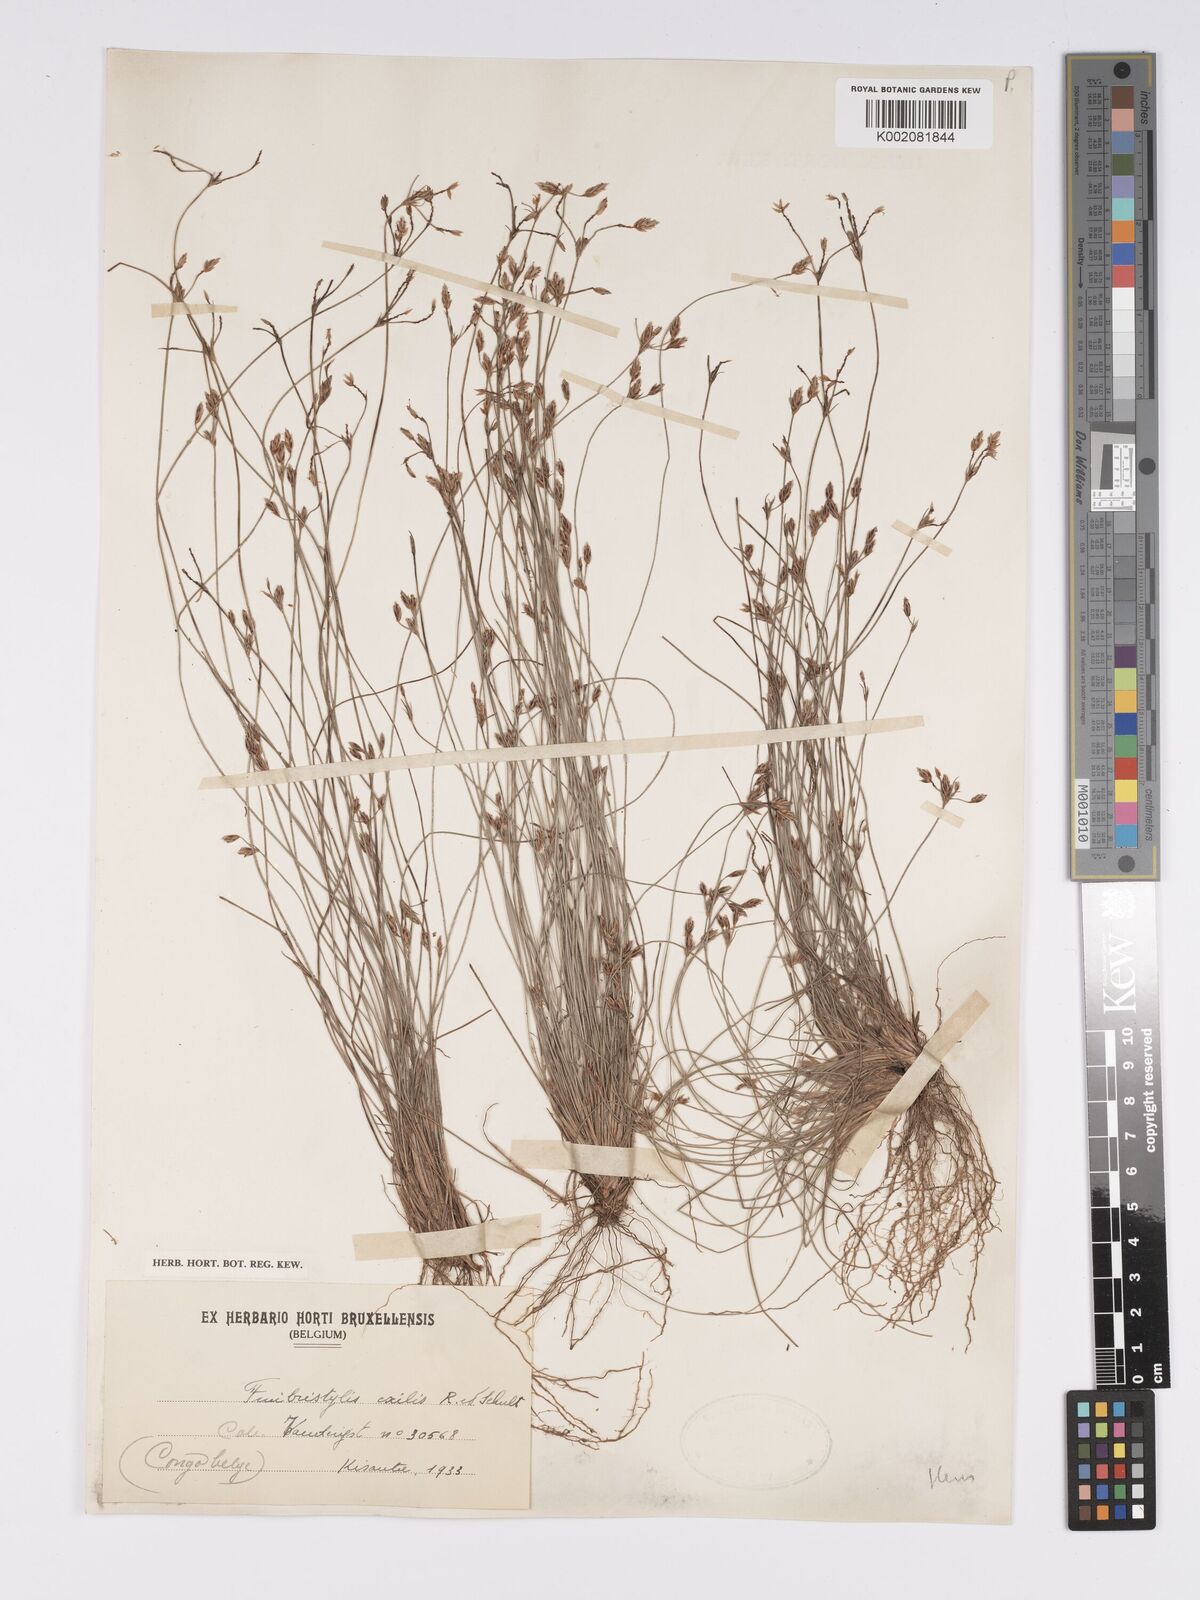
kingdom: Plantae
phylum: Tracheophyta
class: Liliopsida
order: Poales
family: Cyperaceae
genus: Bulbostylis
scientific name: Bulbostylis hispidula
